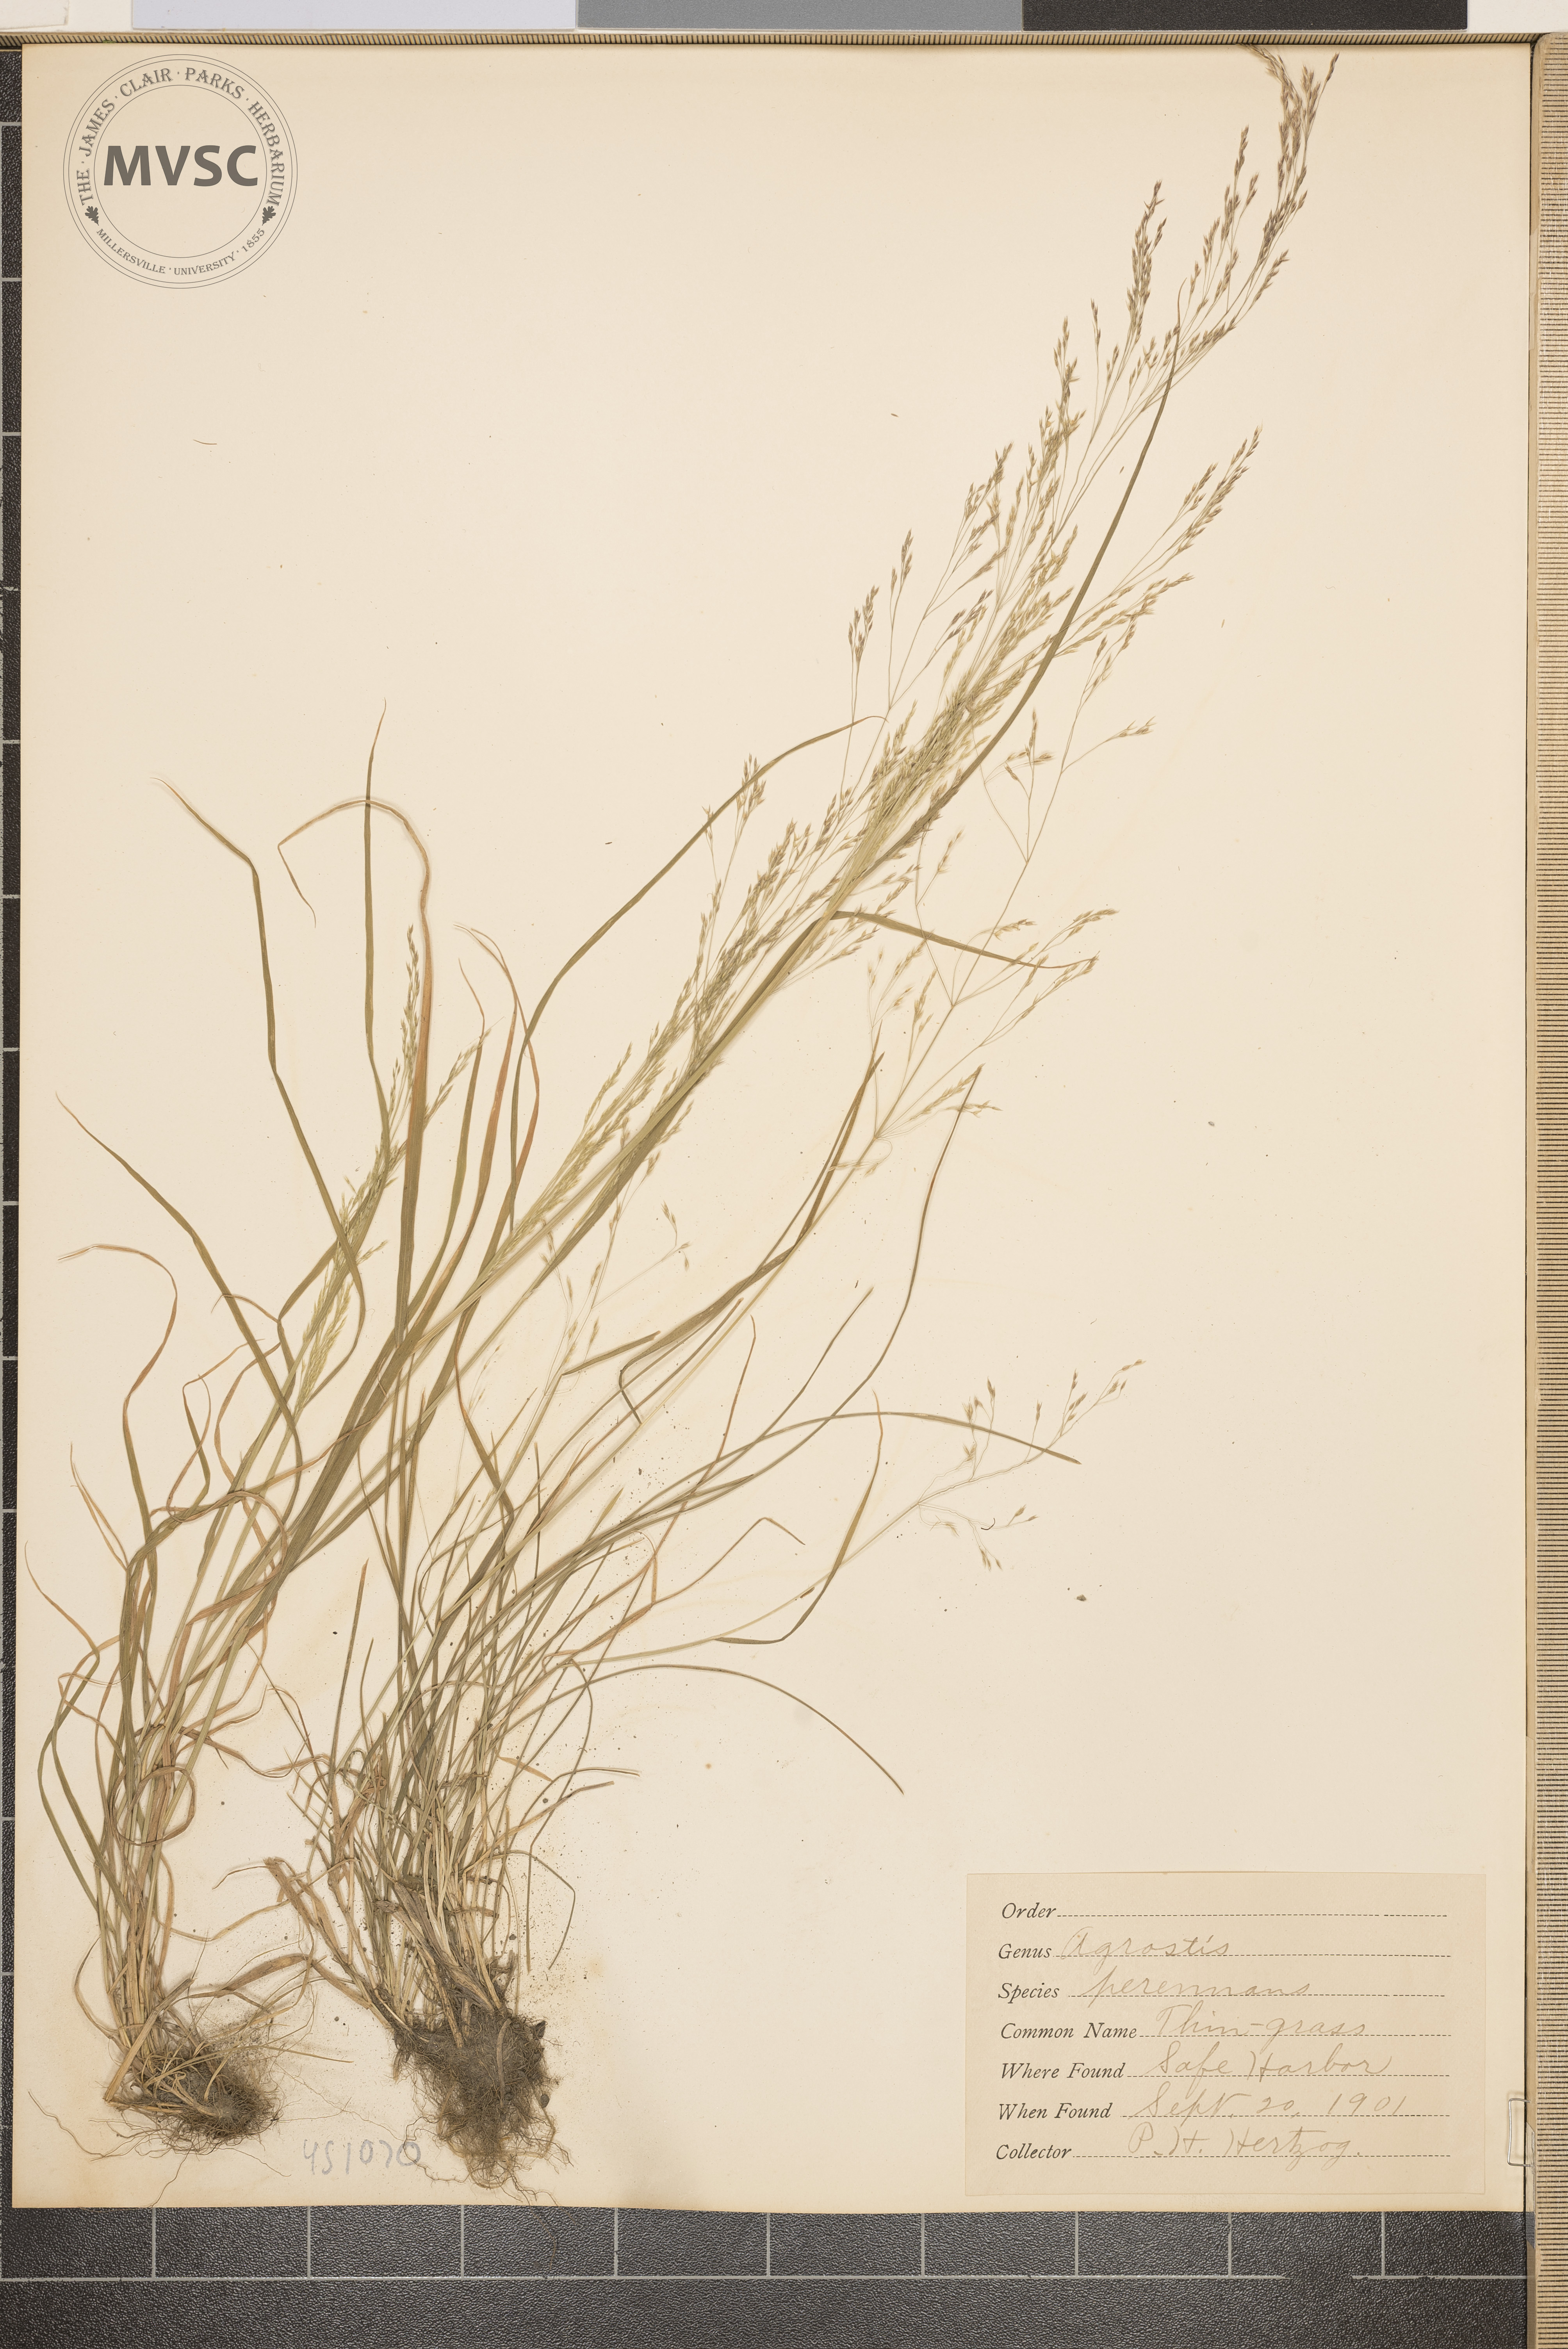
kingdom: Plantae
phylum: Tracheophyta
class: Liliopsida
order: Poales
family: Poaceae
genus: Agrostis
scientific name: Agrostis perennans
